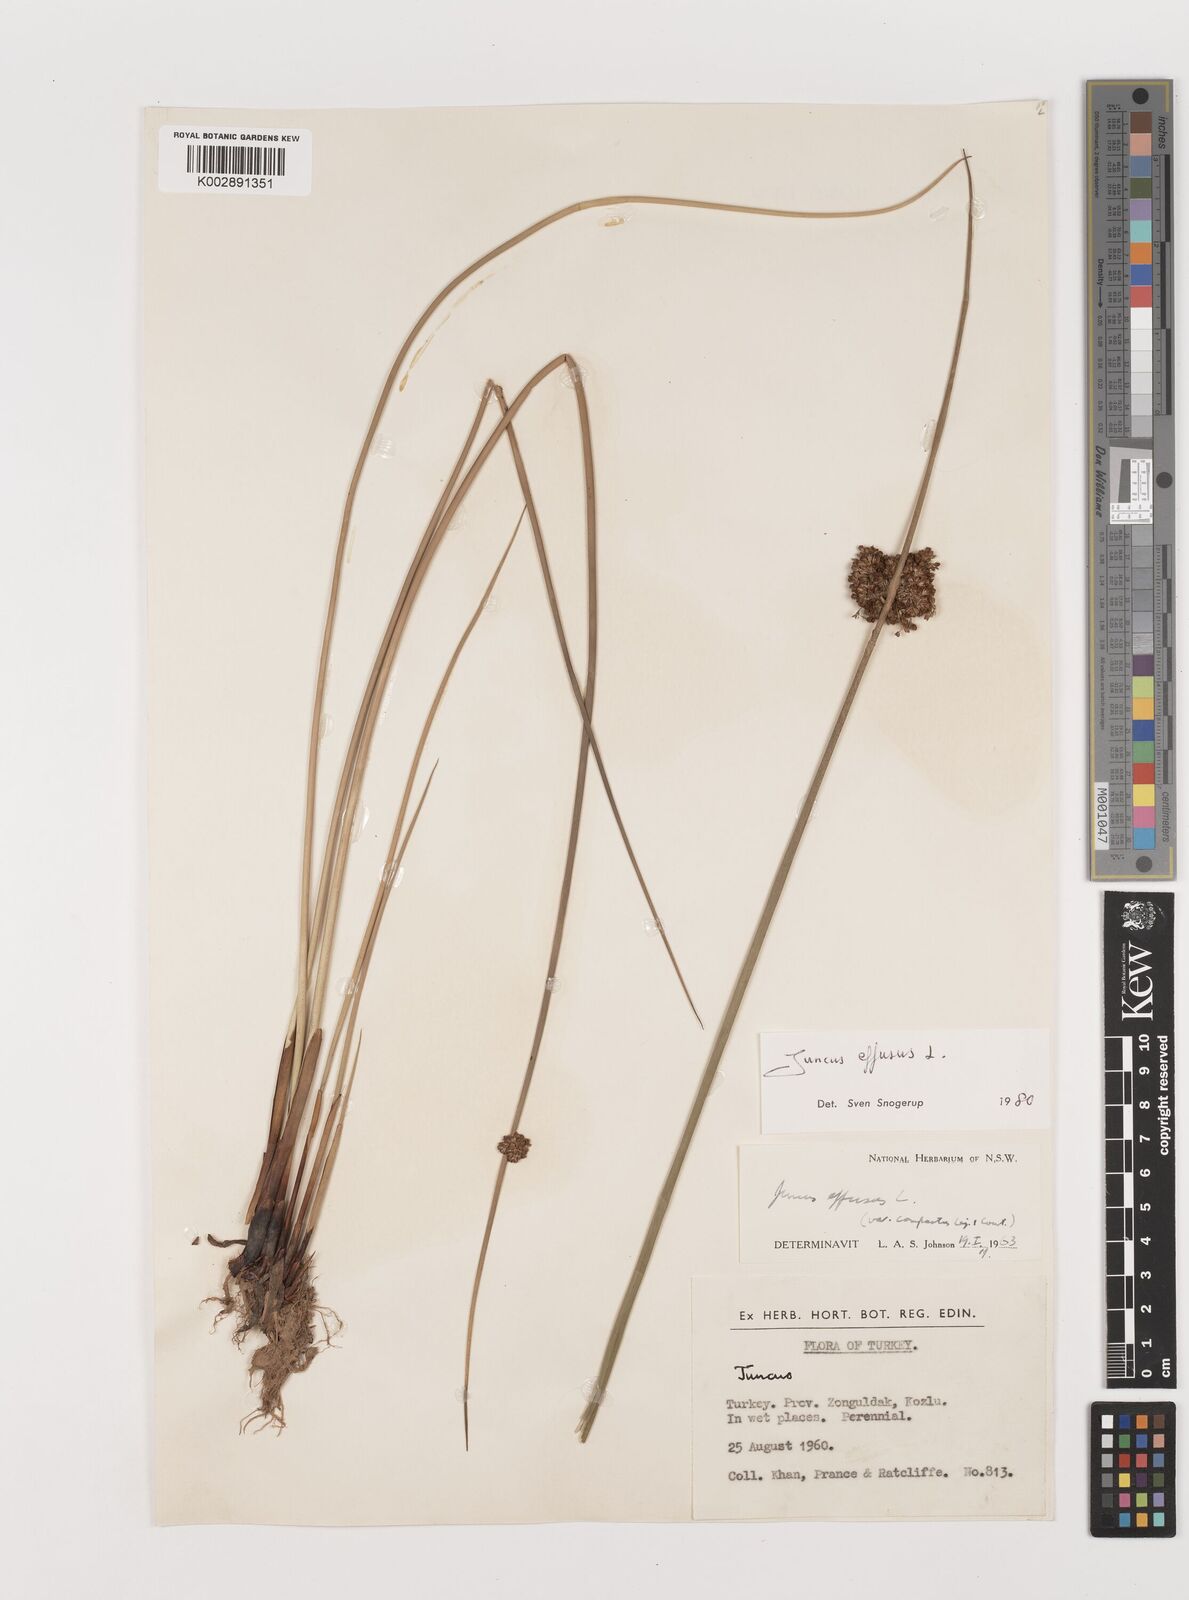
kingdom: Plantae
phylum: Tracheophyta
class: Liliopsida
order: Poales
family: Juncaceae
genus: Juncus
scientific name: Juncus effusus
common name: Soft rush
